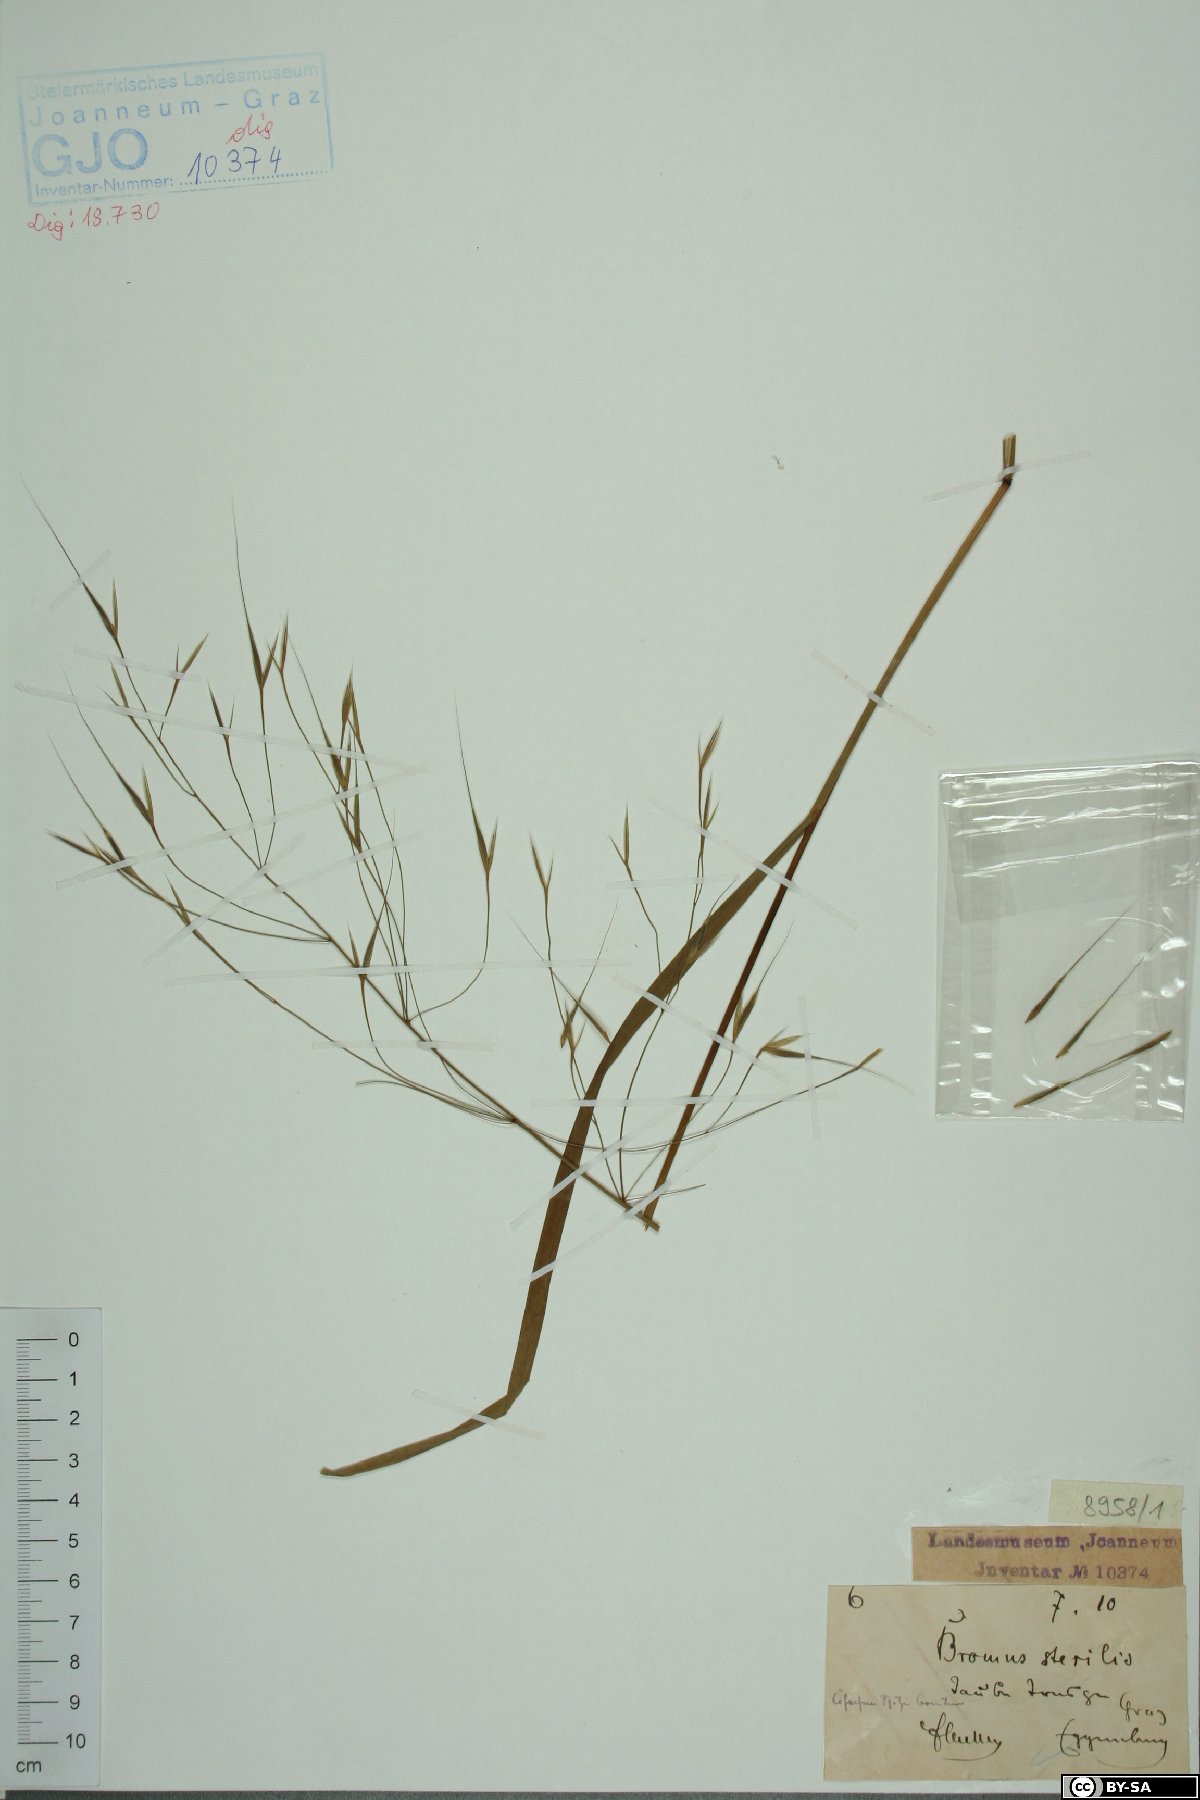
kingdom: Plantae
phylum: Tracheophyta
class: Liliopsida
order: Poales
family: Poaceae
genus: Bromus
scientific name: Bromus sterilis
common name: Poverty brome
